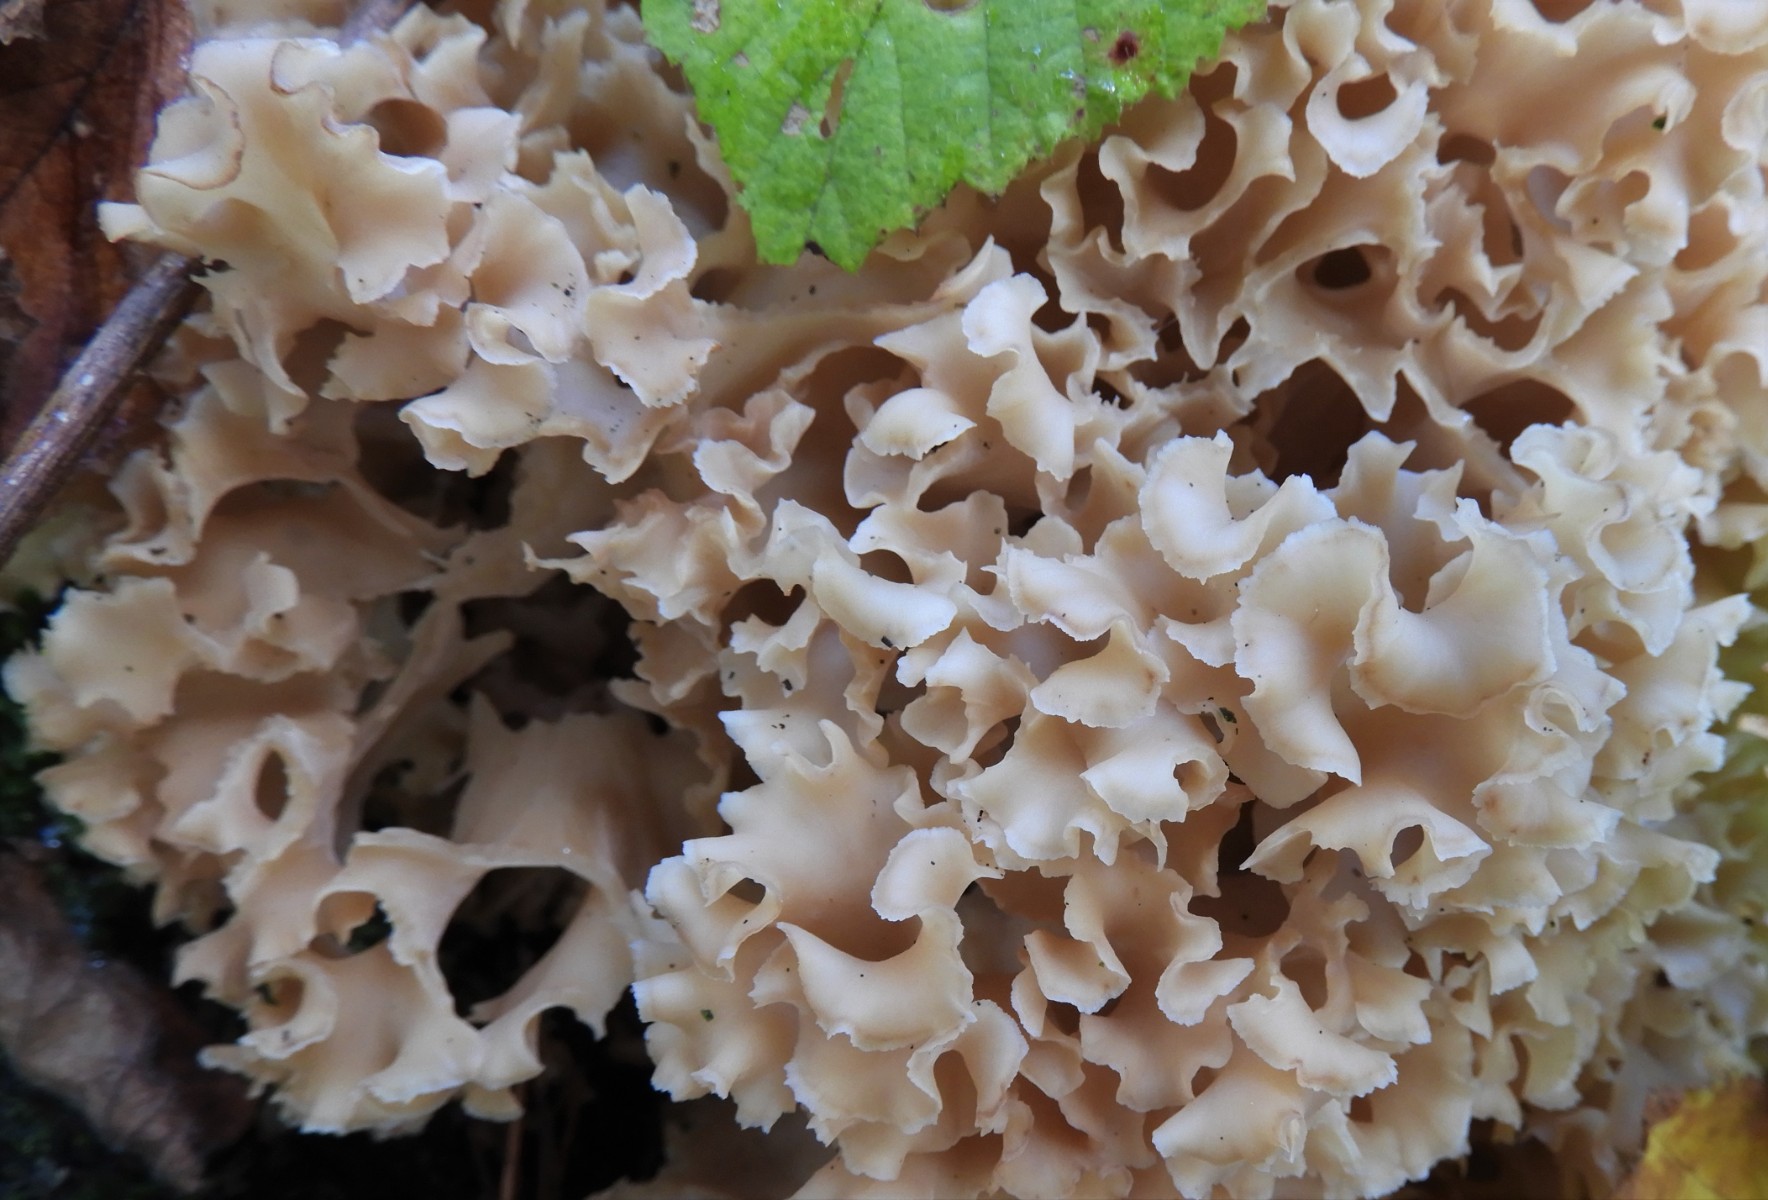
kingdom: Fungi
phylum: Basidiomycota
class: Agaricomycetes
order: Polyporales
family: Sparassidaceae
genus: Sparassis
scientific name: Sparassis crispa
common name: kruset blomkålssvamp
